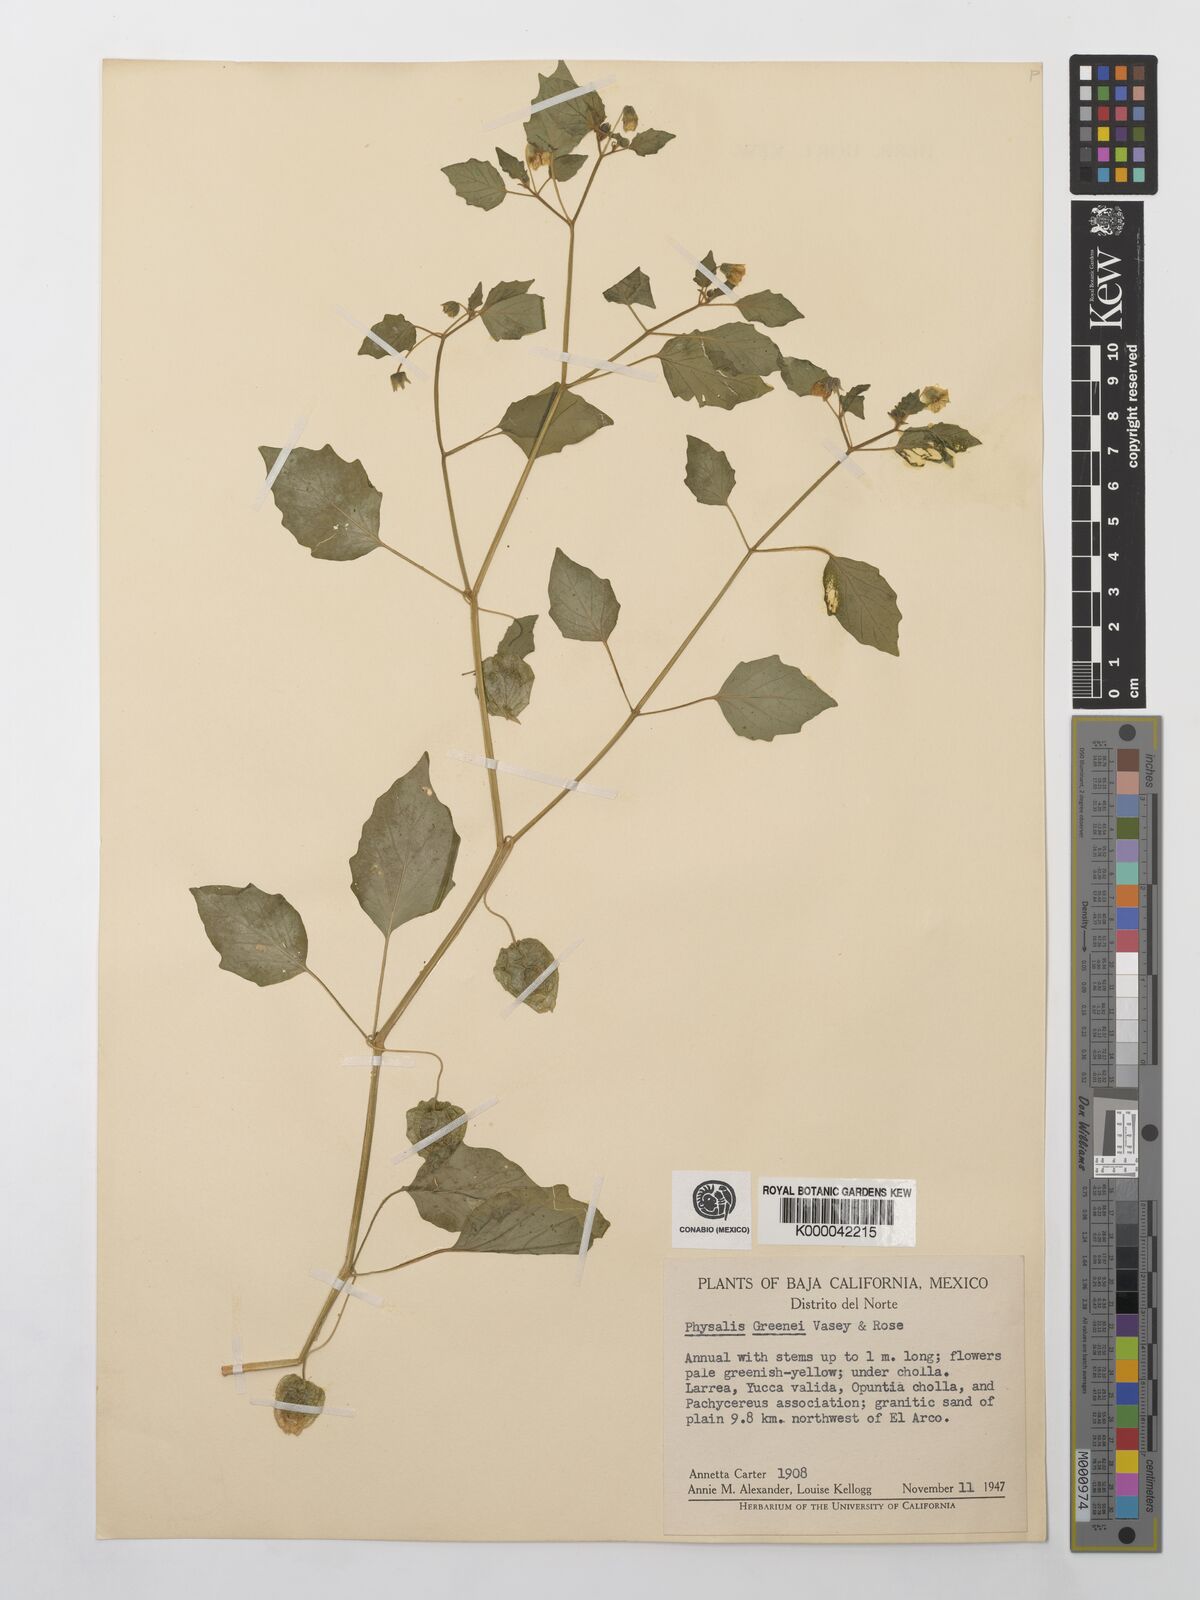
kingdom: Plantae
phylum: Tracheophyta
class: Magnoliopsida
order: Solanales
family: Solanaceae
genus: Physalis
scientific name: Physalis crassifolia
